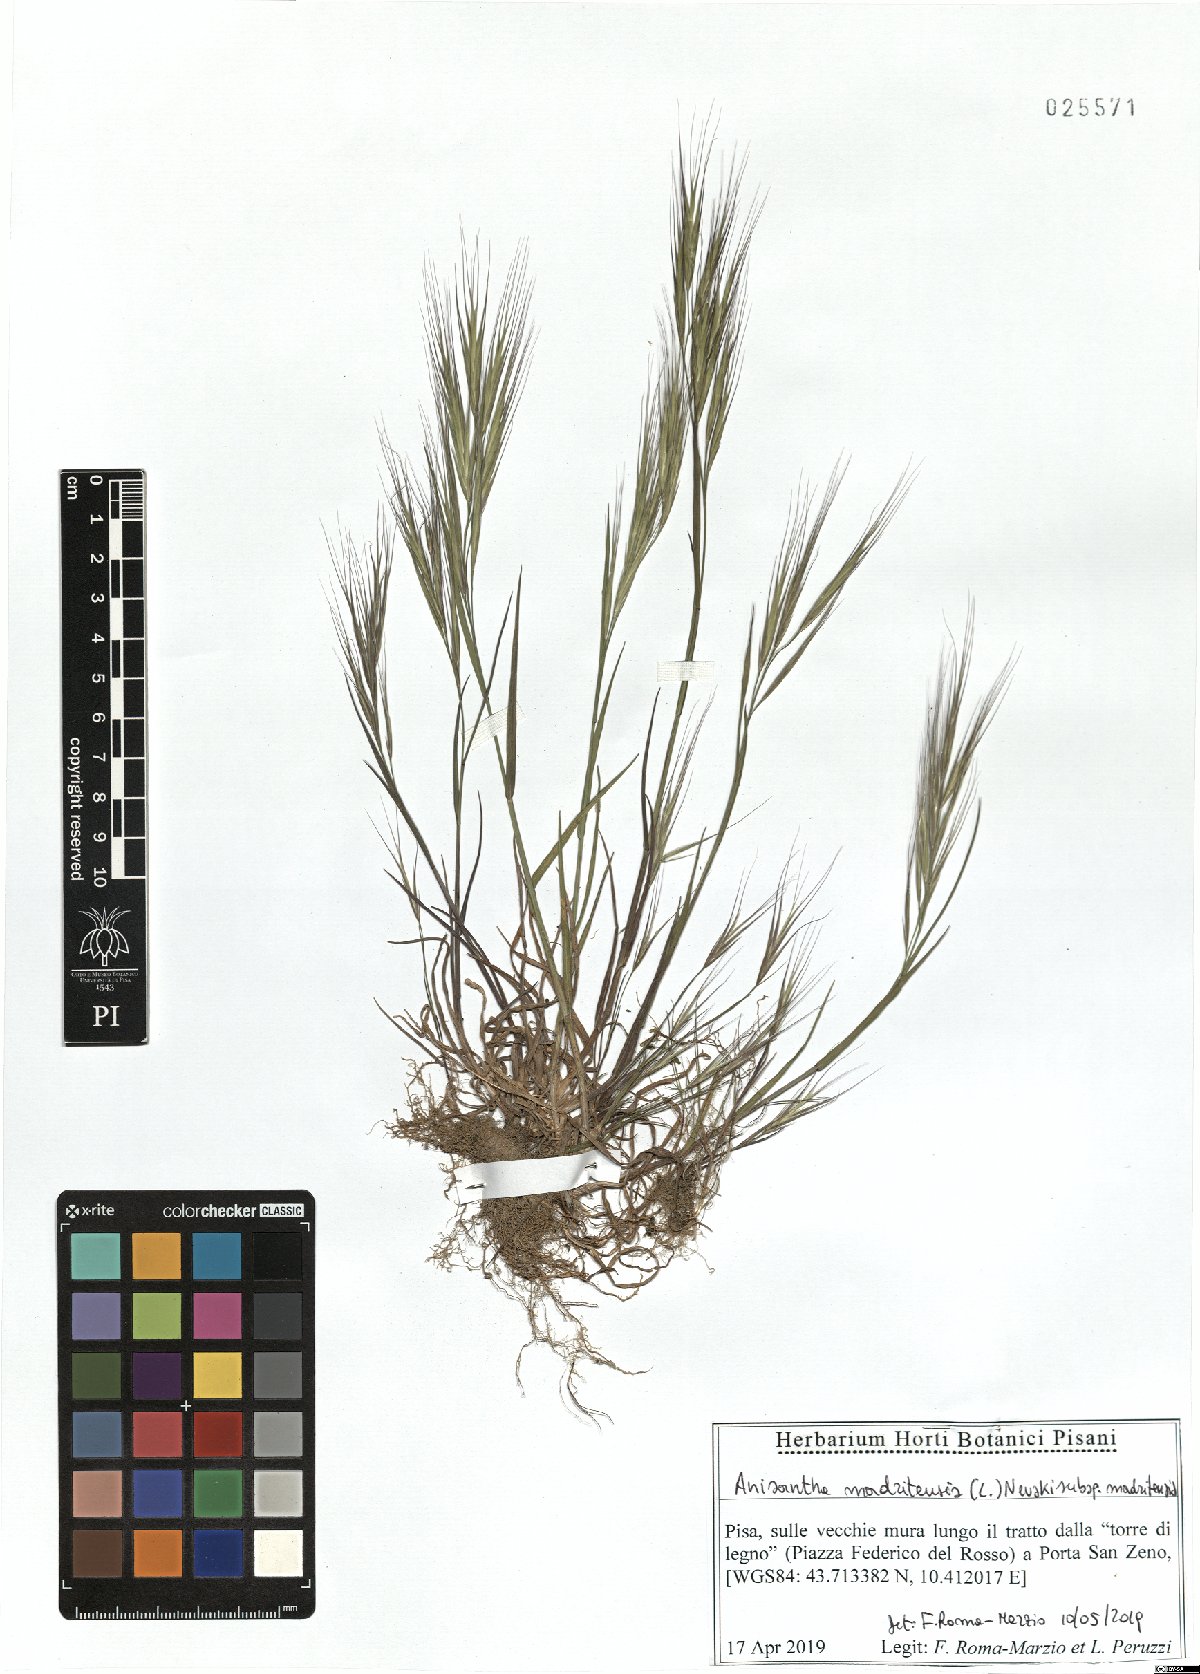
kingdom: Plantae
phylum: Tracheophyta
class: Liliopsida
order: Poales
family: Poaceae
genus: Bromus
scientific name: Bromus madritensis
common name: Compact brome
